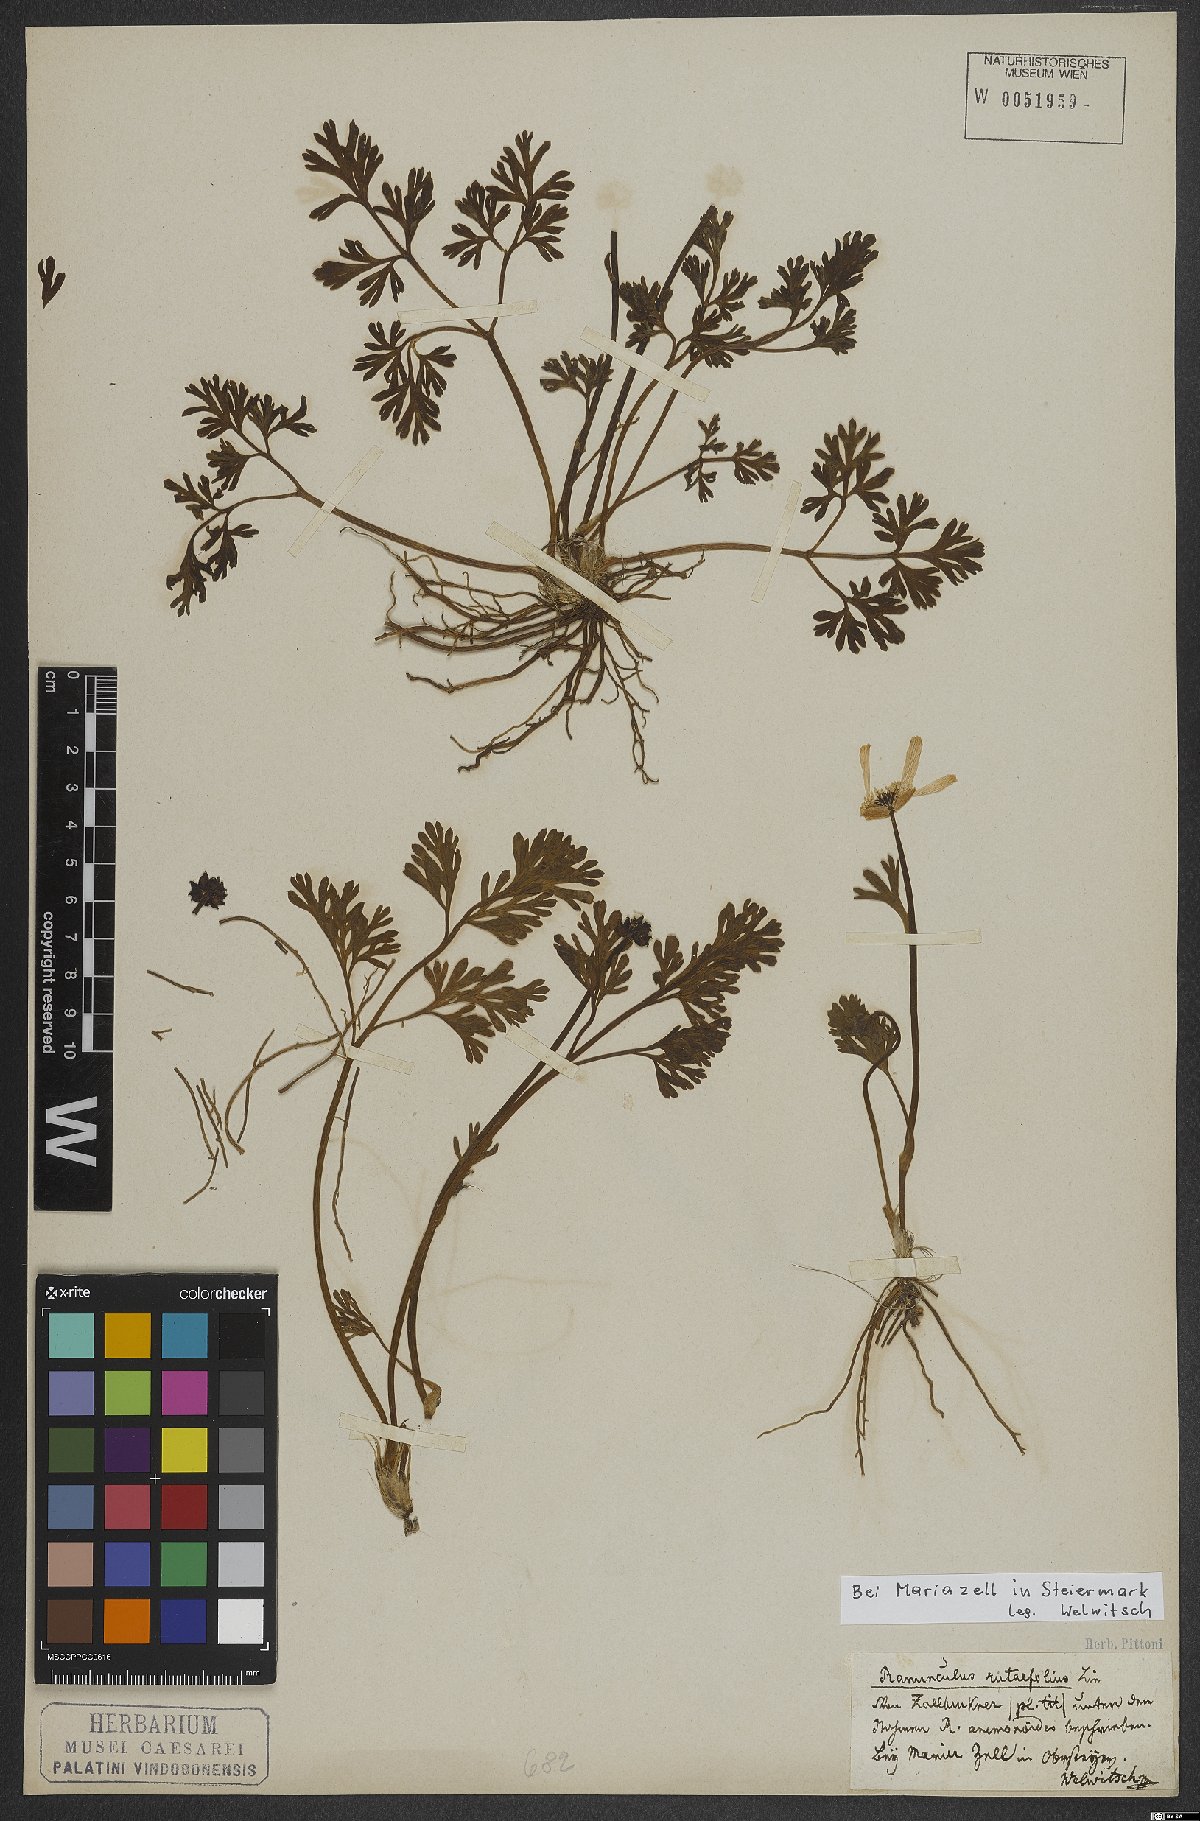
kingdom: Plantae
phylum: Tracheophyta
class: Magnoliopsida
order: Ranunculales
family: Ranunculaceae
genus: Callianthemum
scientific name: Callianthemum anemonoides
